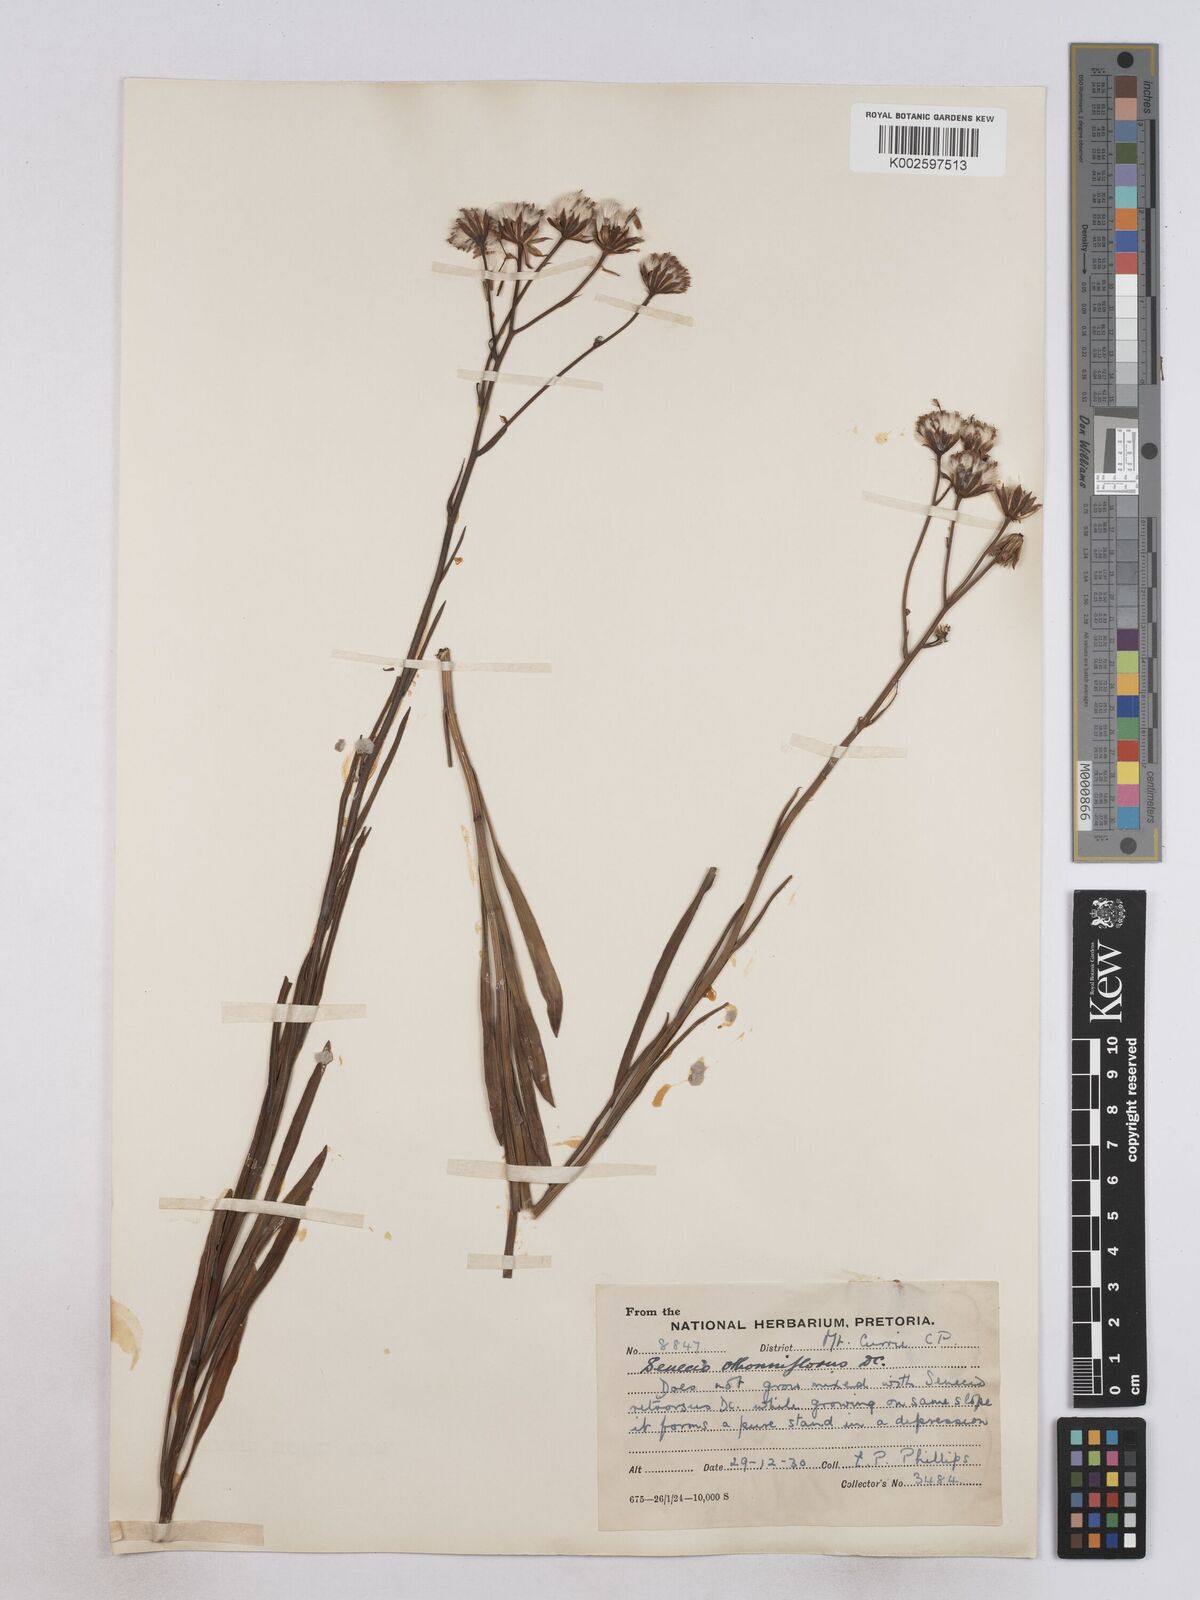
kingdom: Plantae
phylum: Tracheophyta
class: Magnoliopsida
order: Asterales
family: Asteraceae
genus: Senecio
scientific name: Senecio othonniflorus
